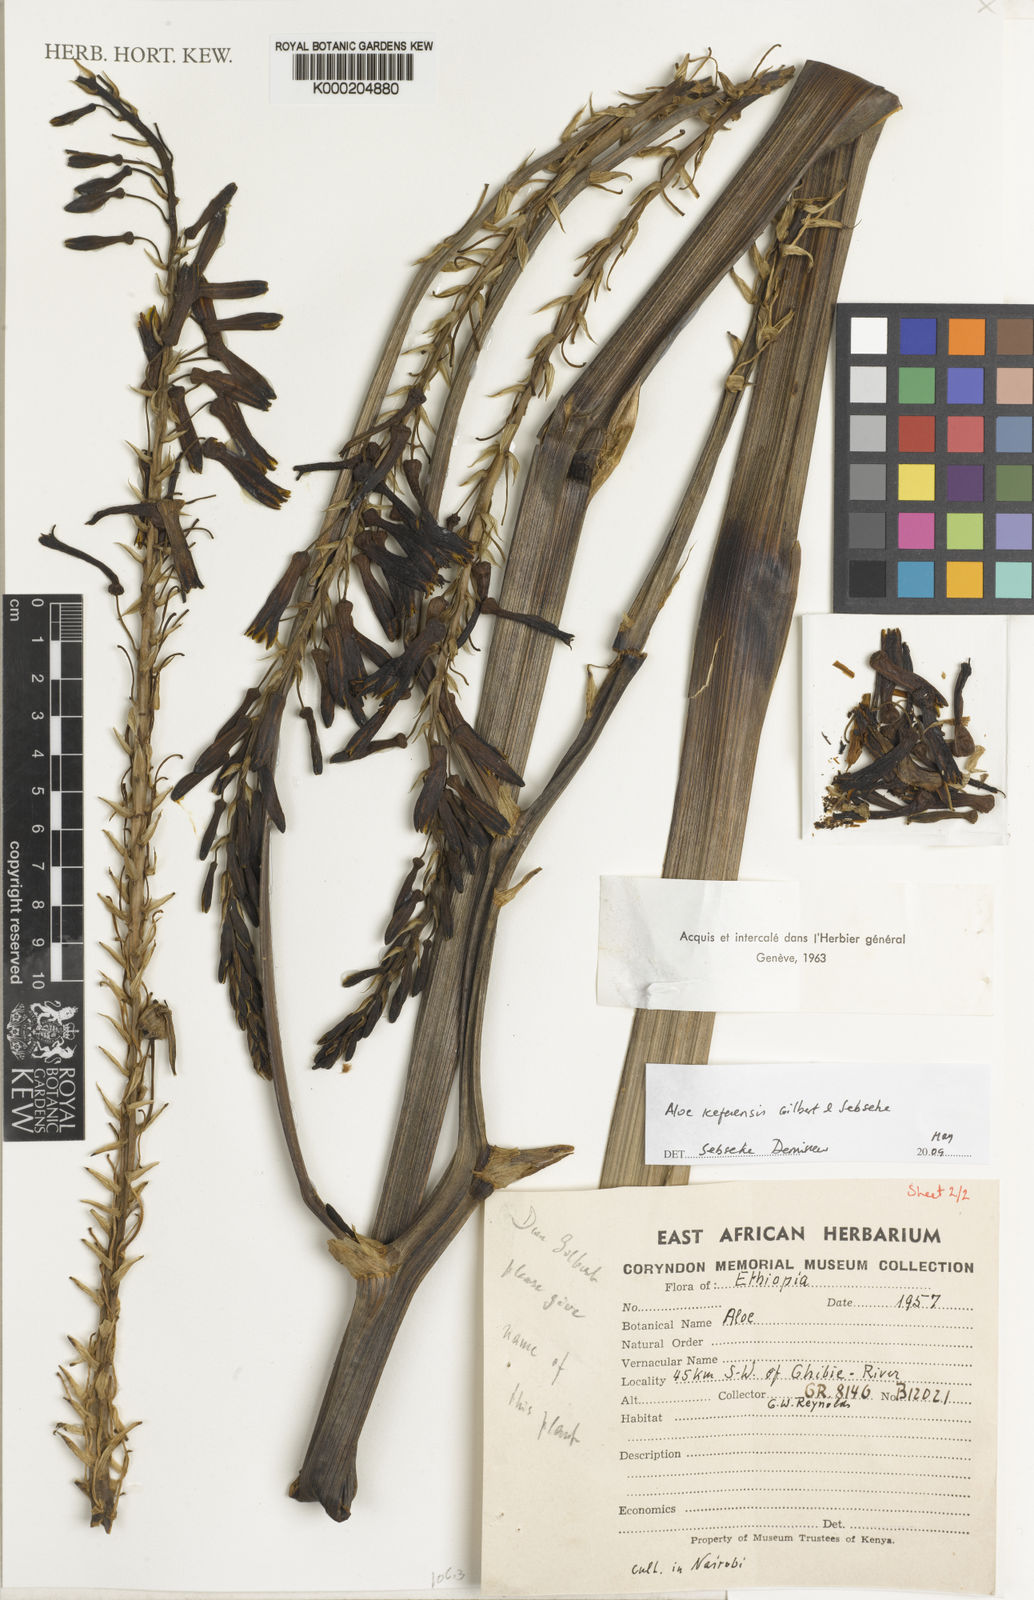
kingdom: Plantae
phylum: Tracheophyta
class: Liliopsida
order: Asparagales
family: Asphodelaceae
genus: Aloe
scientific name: Aloe kefaensis
